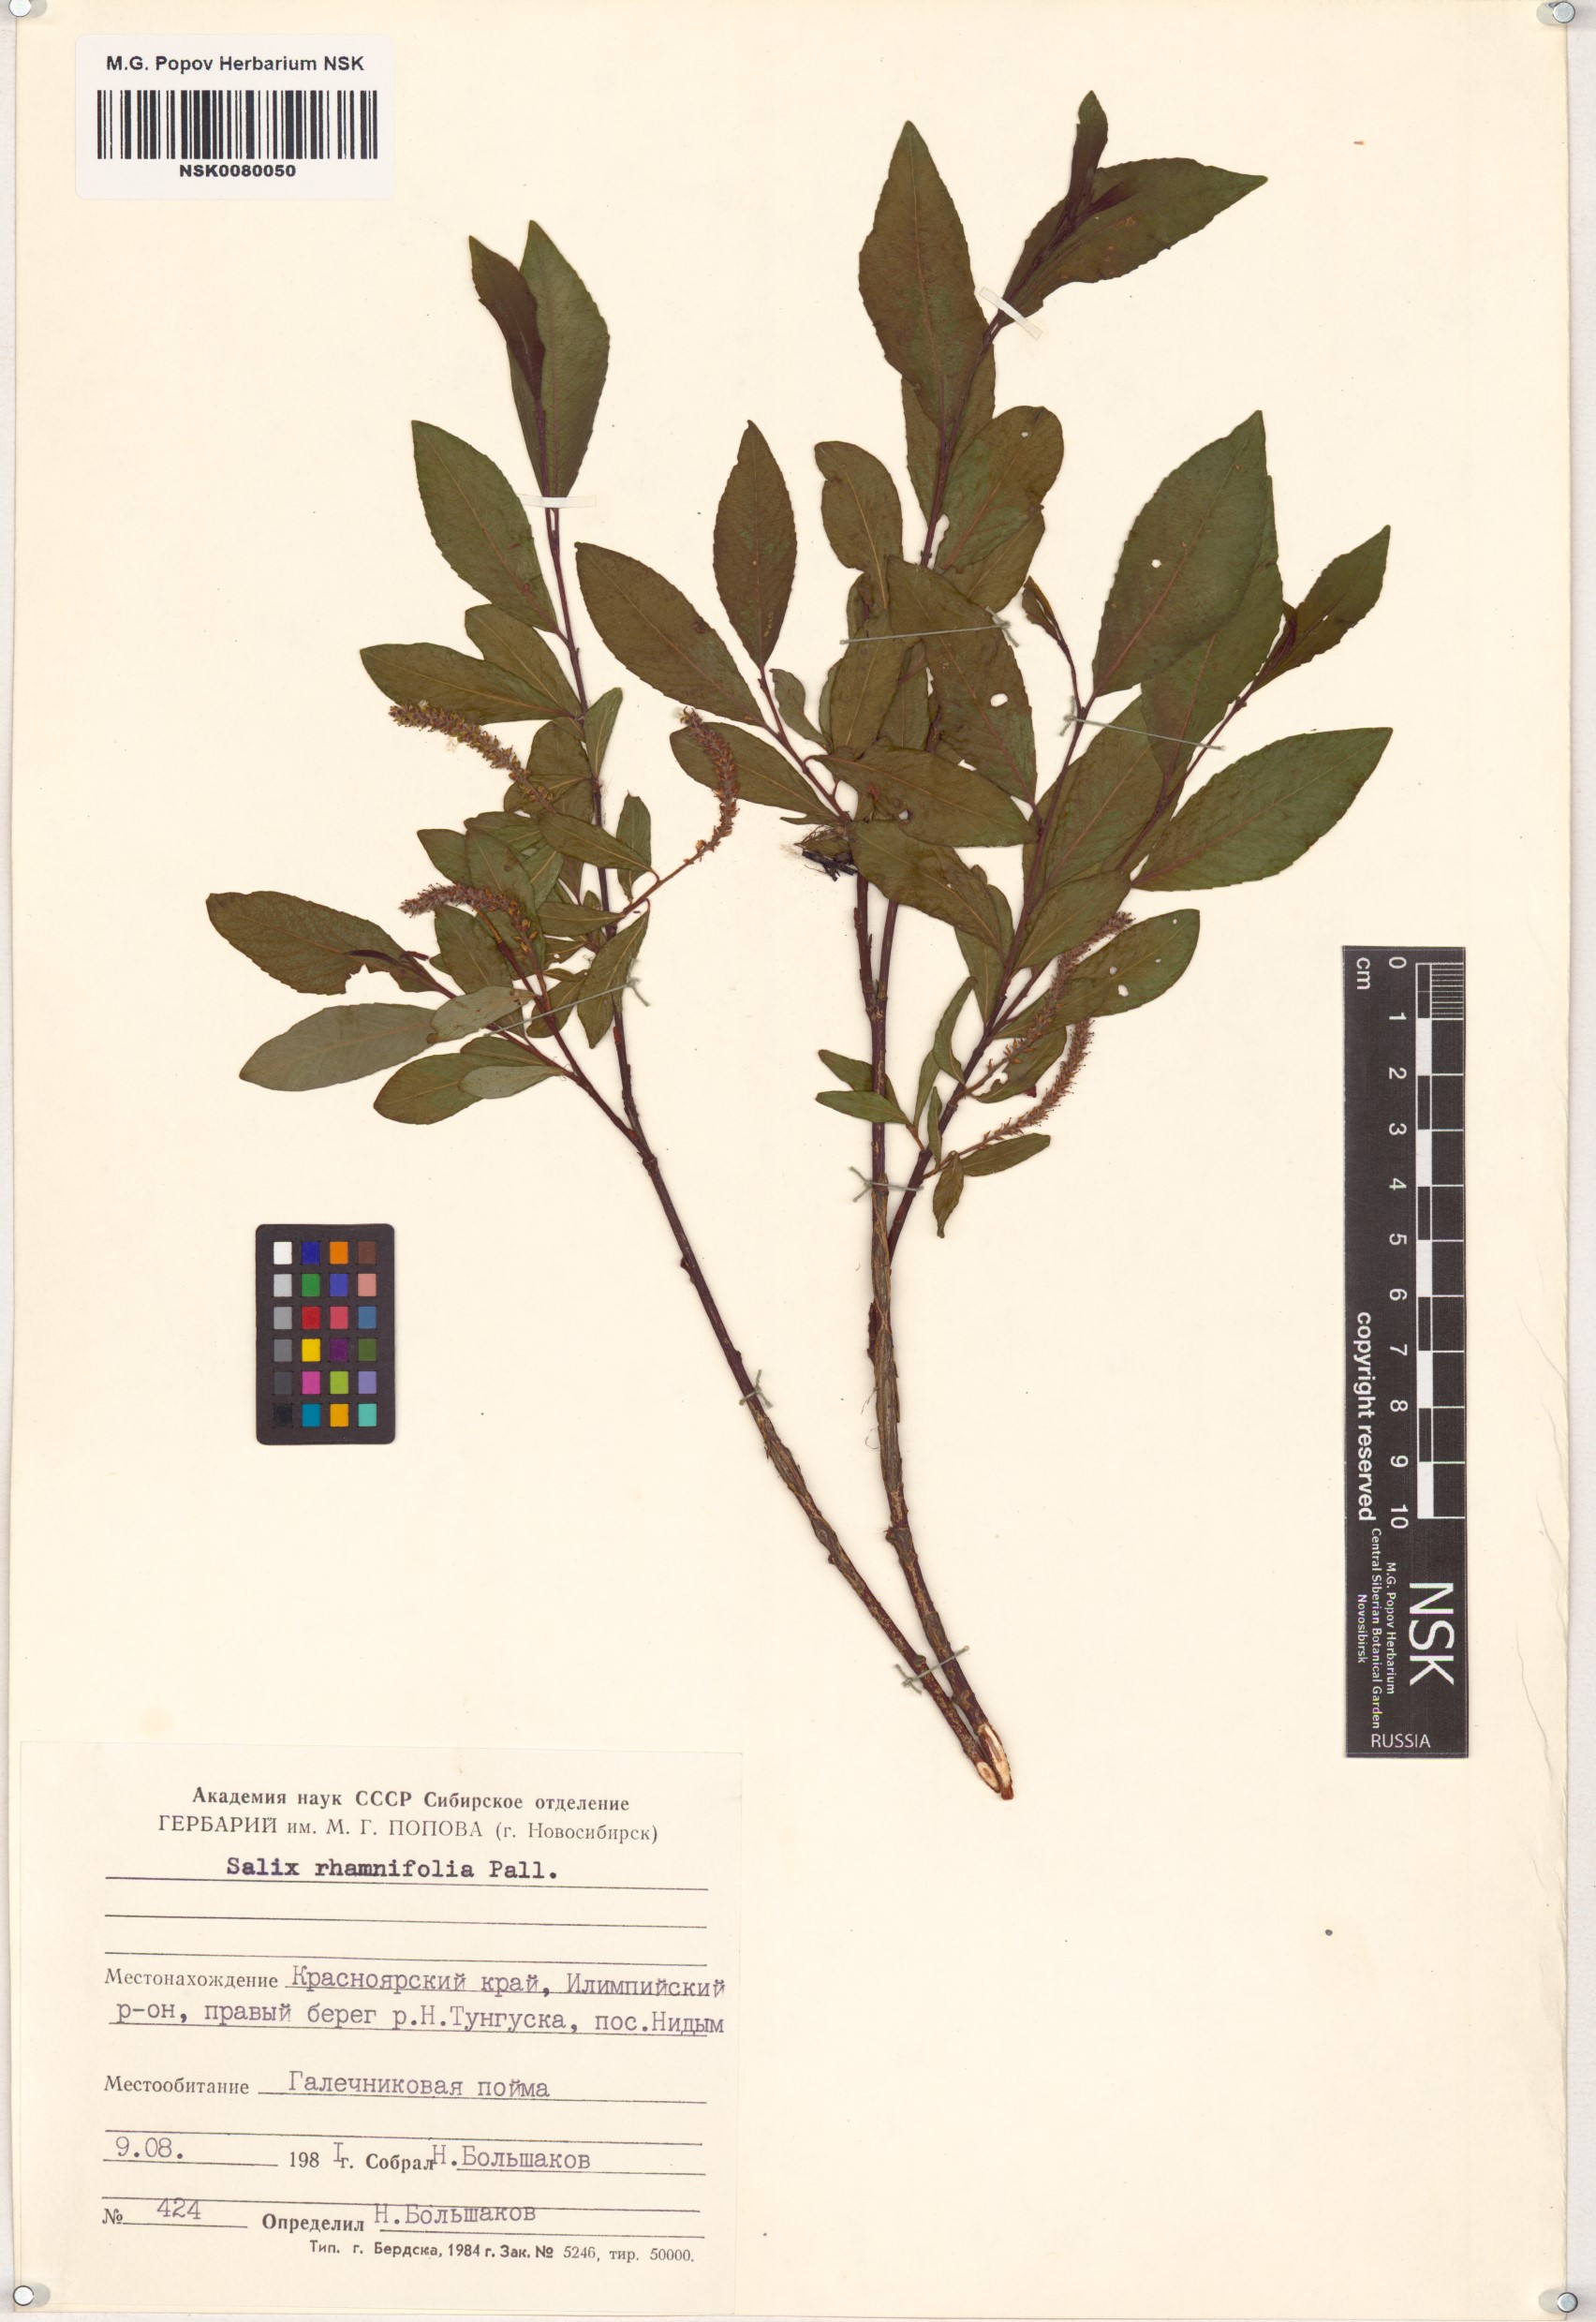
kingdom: Plantae
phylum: Tracheophyta
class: Magnoliopsida
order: Malpighiales
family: Salicaceae
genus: Salix
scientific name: Salix rhamnifolia
